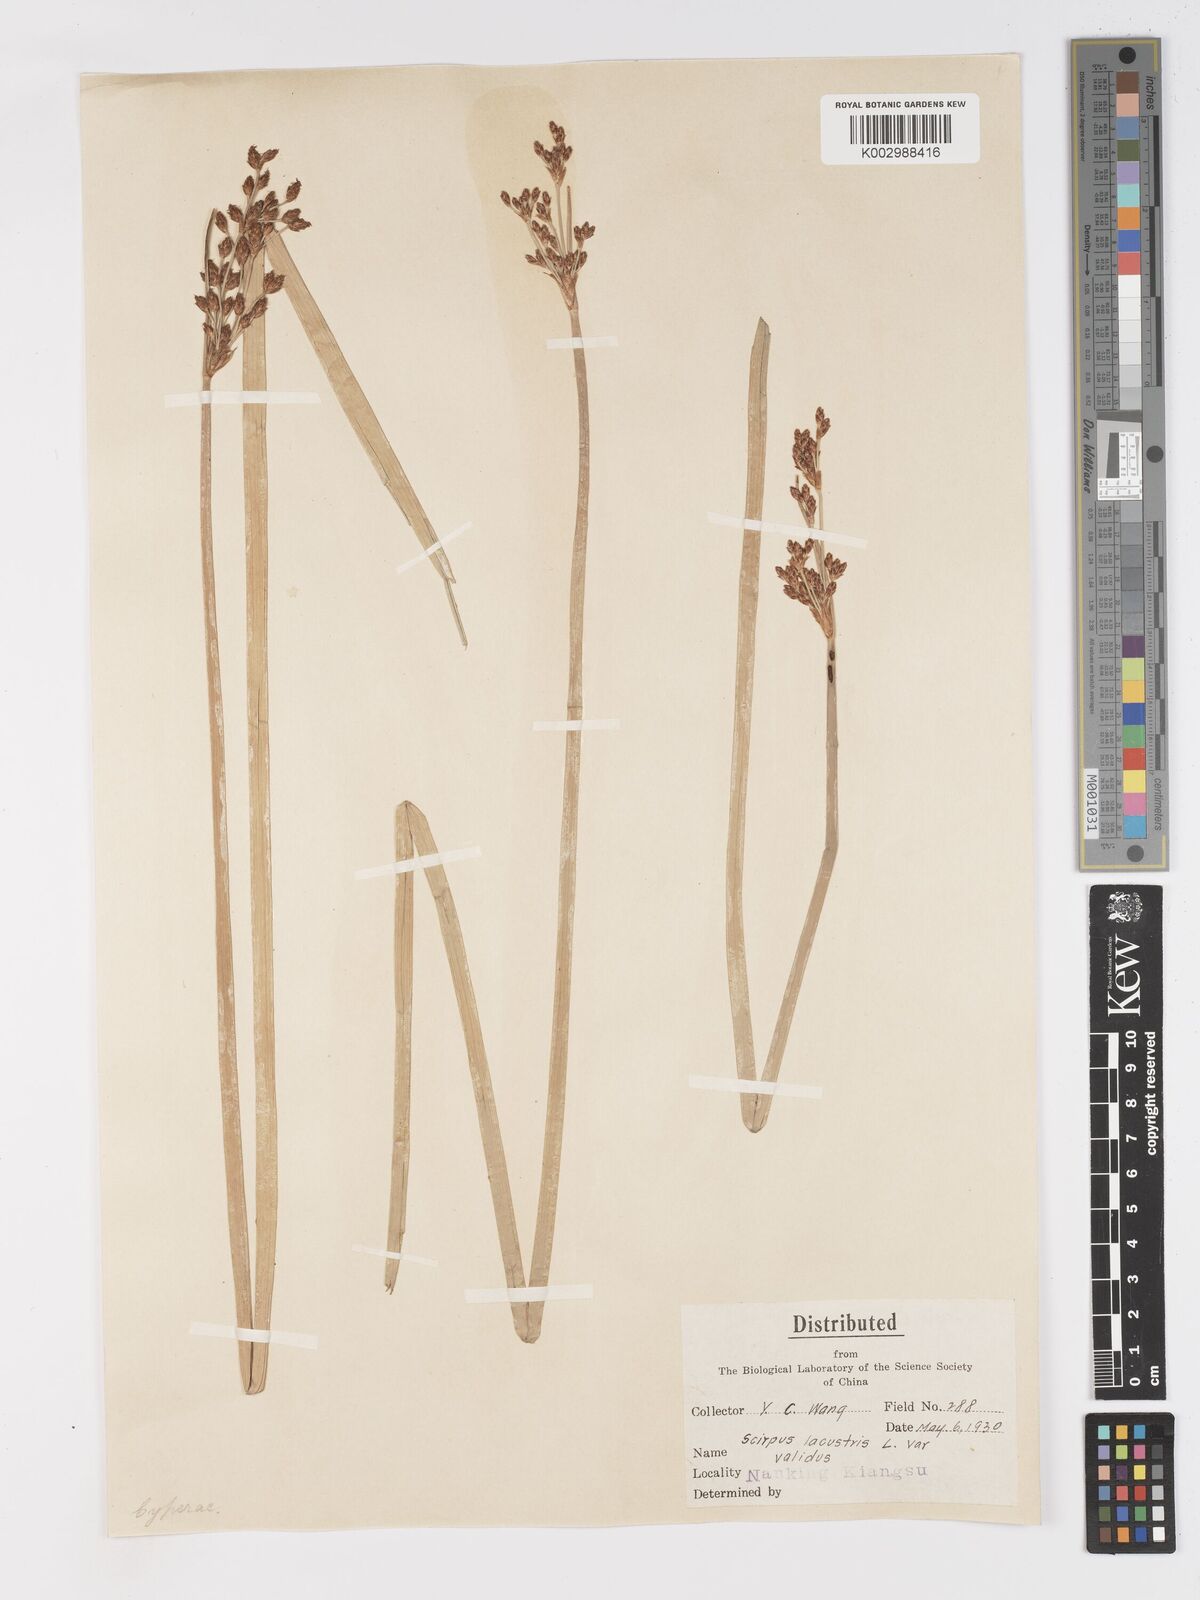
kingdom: Plantae
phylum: Tracheophyta
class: Liliopsida
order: Poales
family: Cyperaceae
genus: Schoenoplectus
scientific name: Schoenoplectus lacustris
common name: Common club-rush
